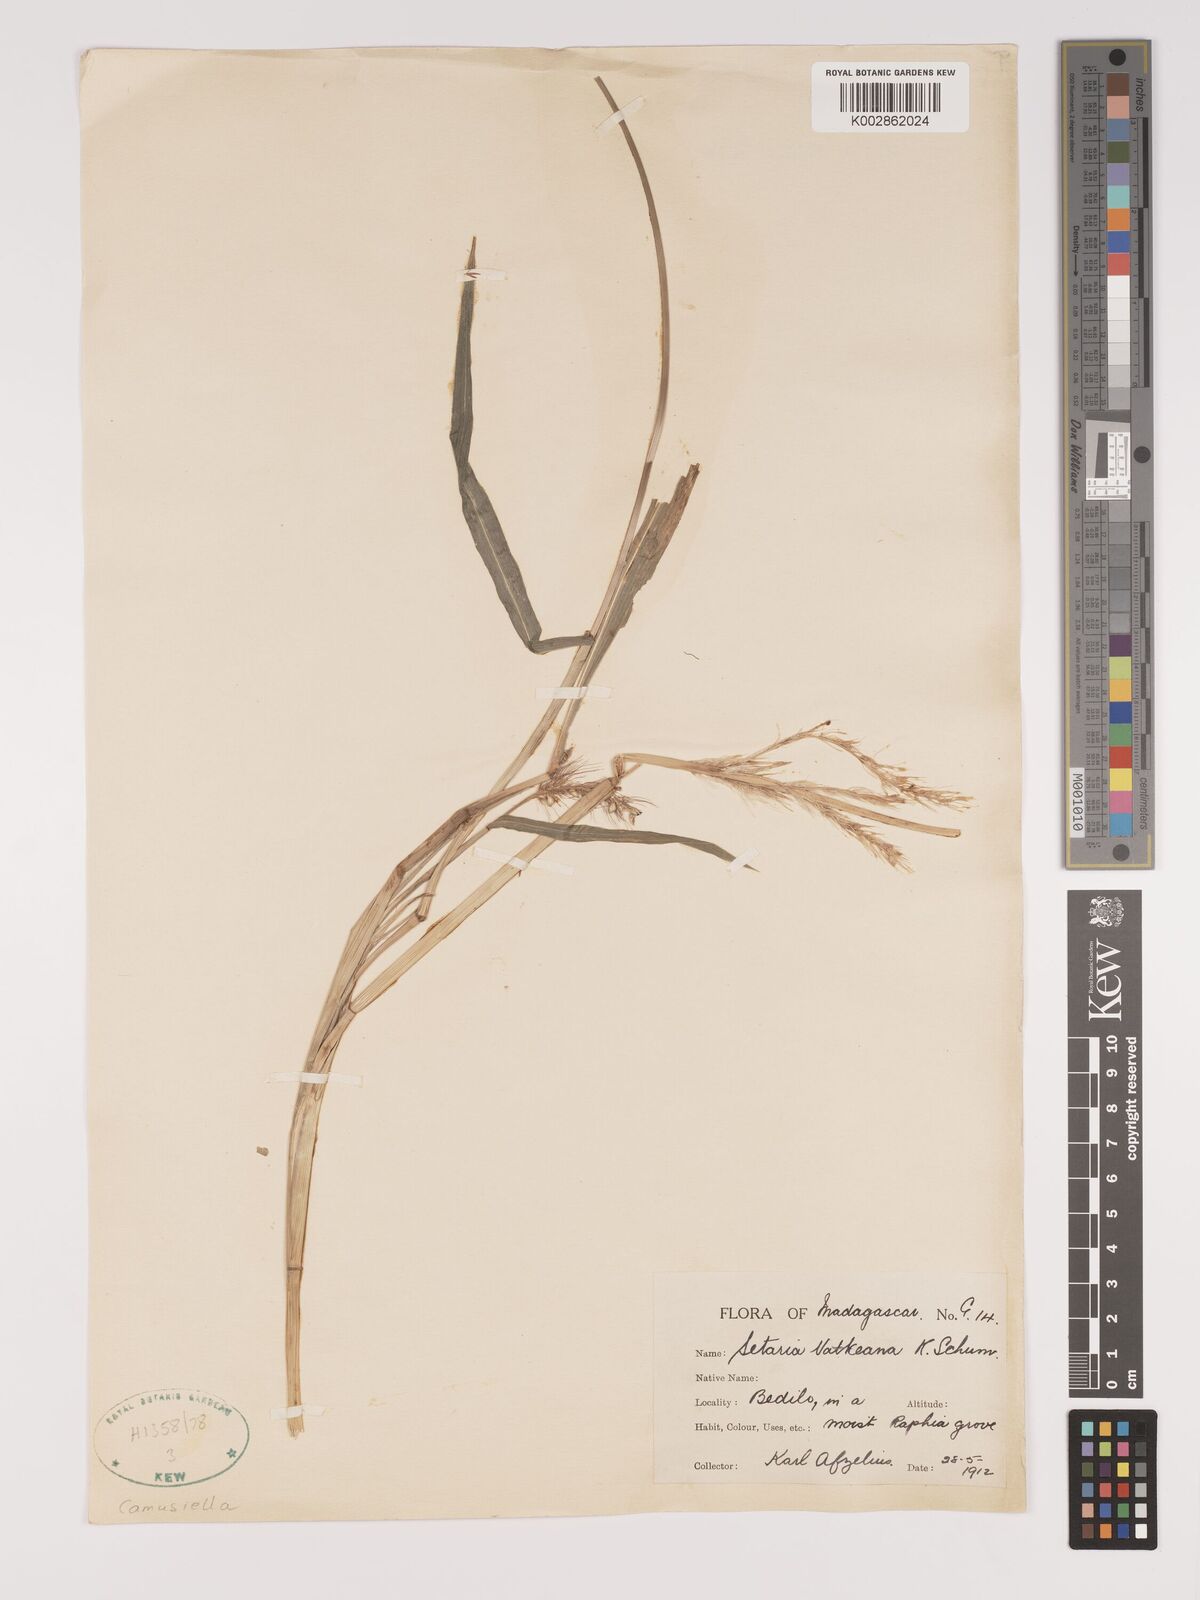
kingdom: Plantae
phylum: Tracheophyta
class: Liliopsida
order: Poales
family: Poaceae
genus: Setaria
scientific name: Setaria vatkeana
